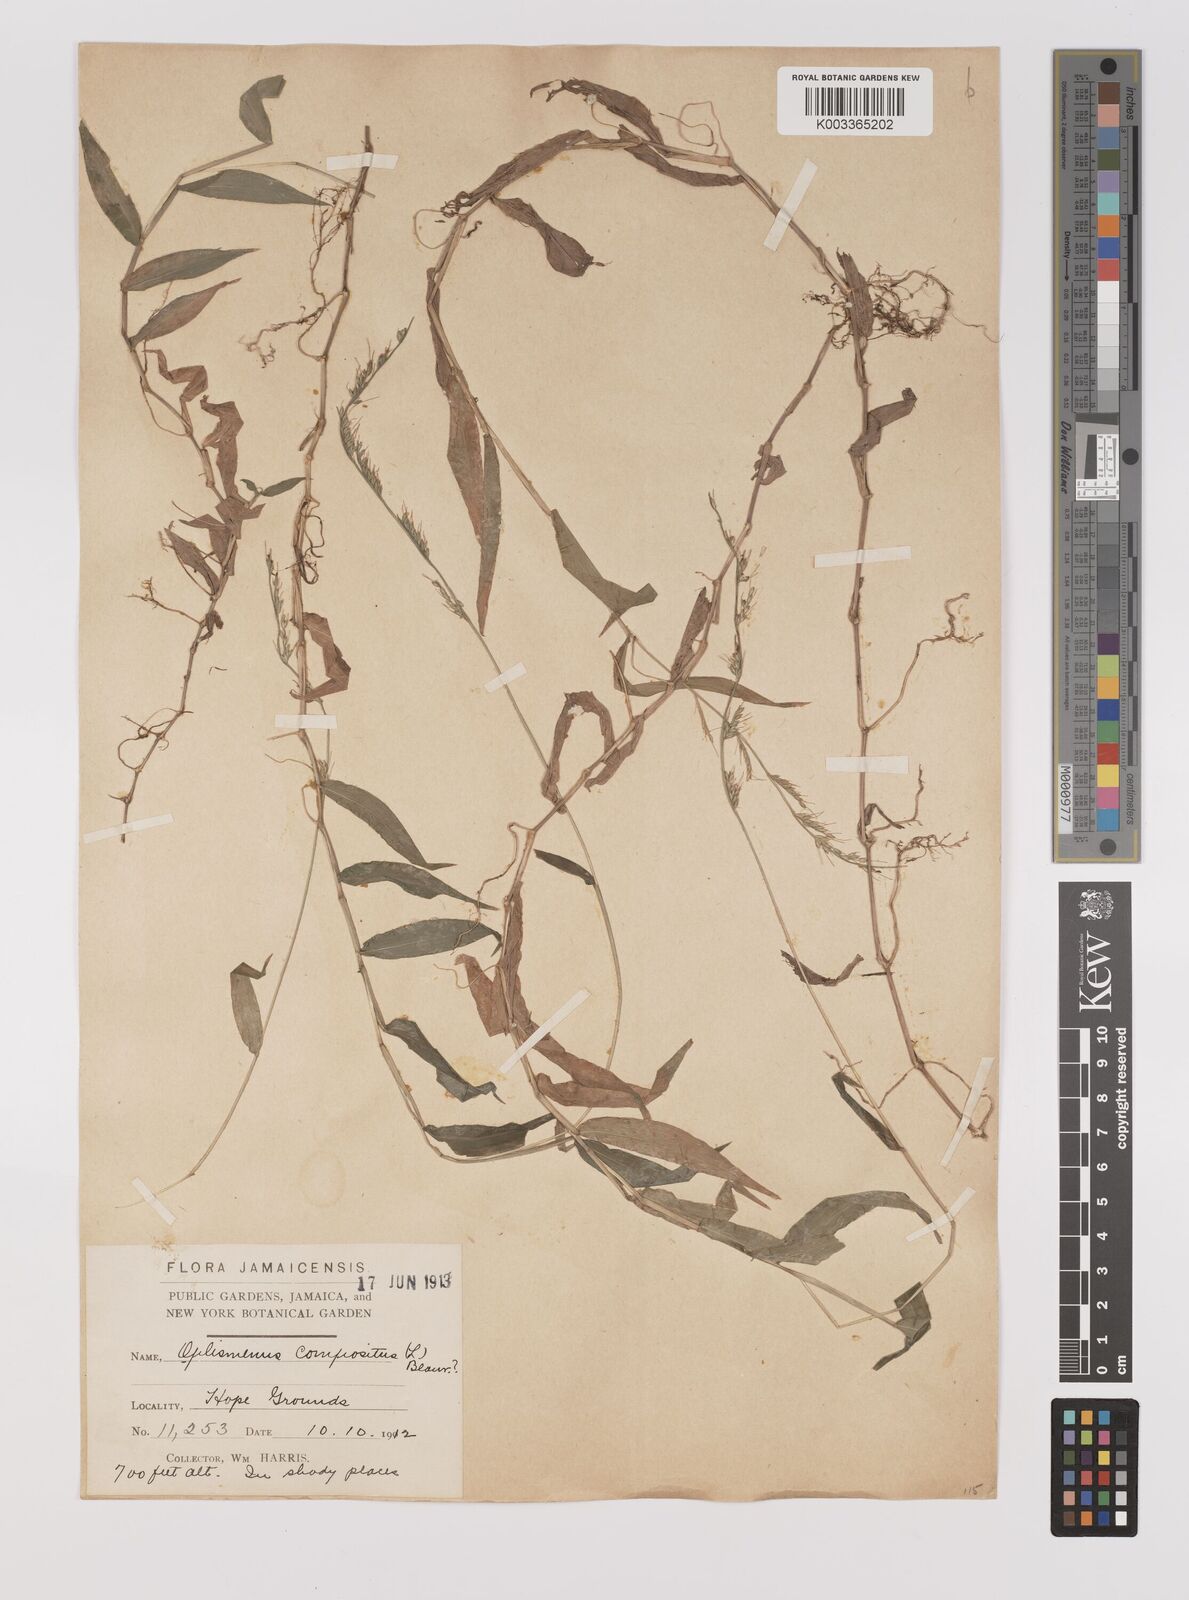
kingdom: Plantae
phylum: Tracheophyta
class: Liliopsida
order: Poales
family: Poaceae
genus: Oplismenus
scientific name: Oplismenus hirtellus
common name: Basketgrass
